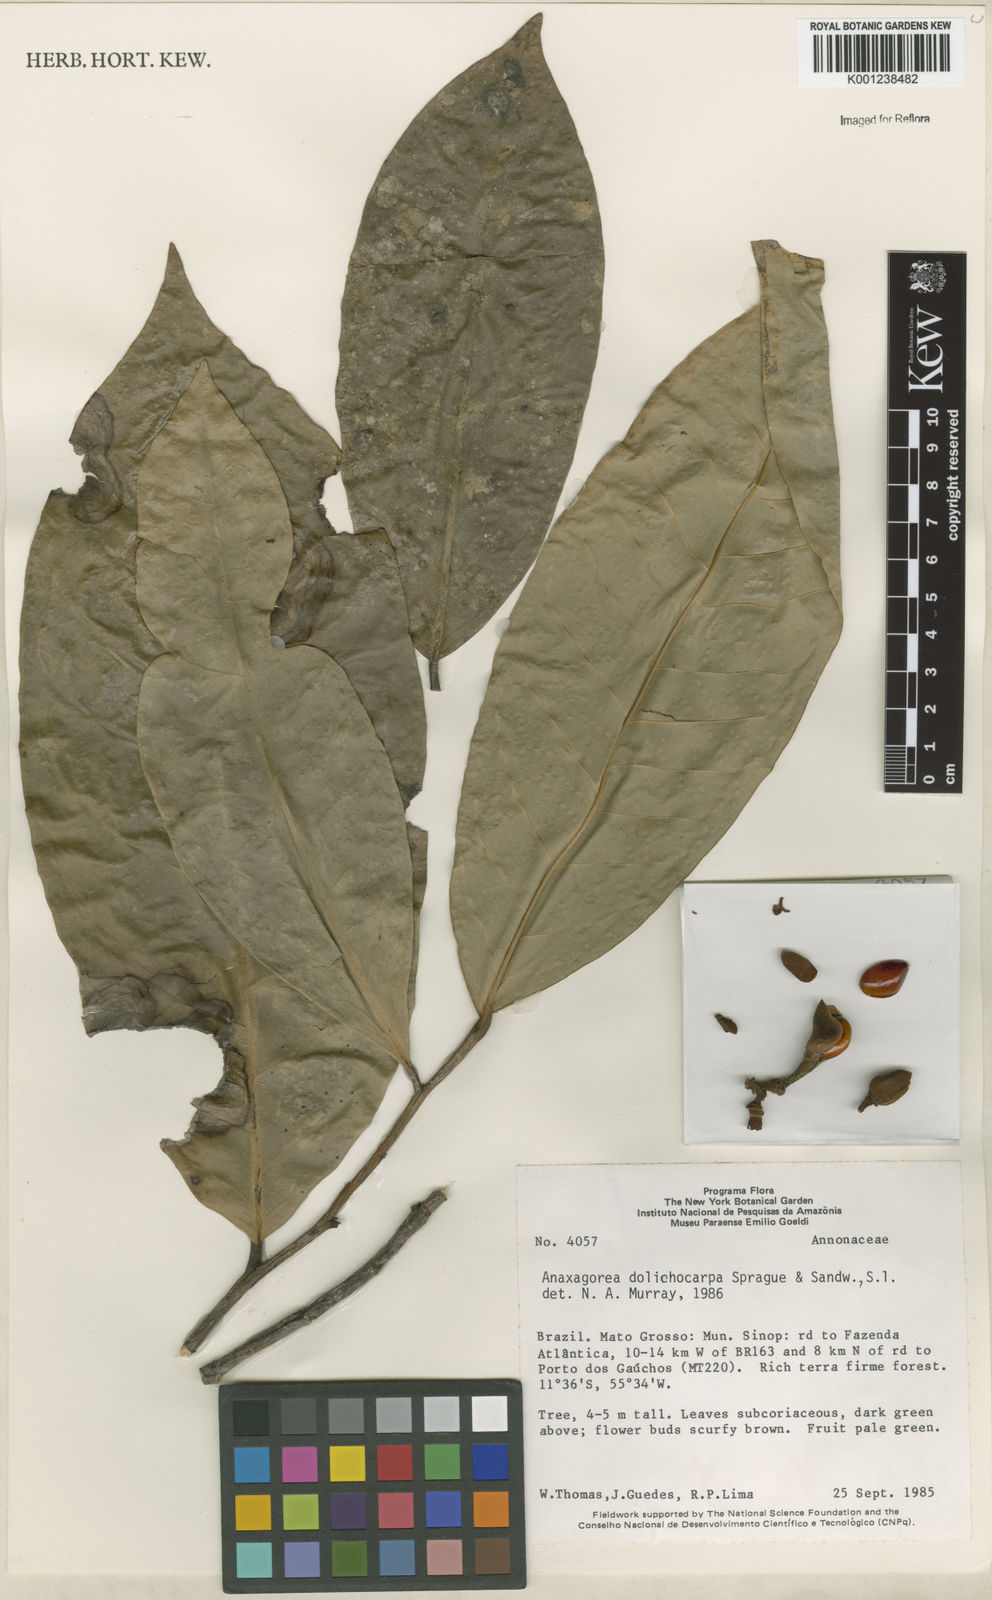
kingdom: Plantae
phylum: Tracheophyta
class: Magnoliopsida
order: Magnoliales
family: Annonaceae
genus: Anaxagorea
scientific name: Anaxagorea dolichocarpa
